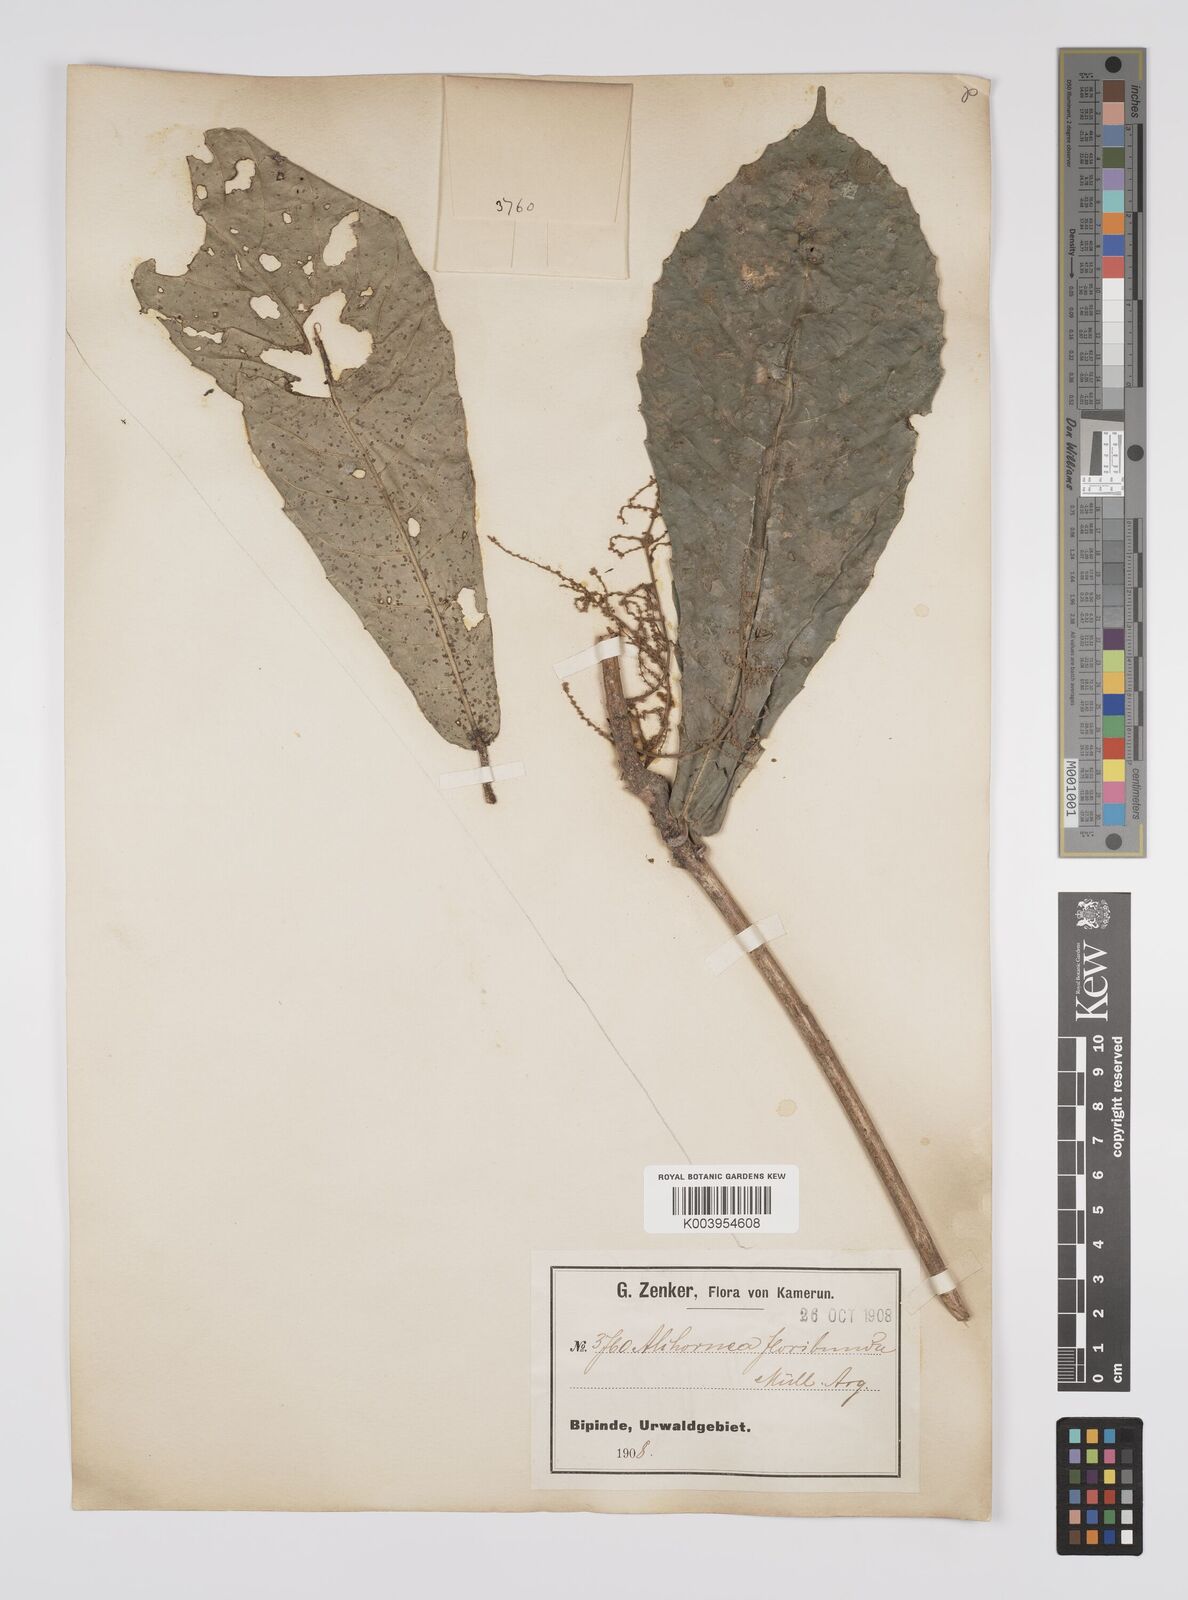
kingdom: Plantae
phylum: Tracheophyta
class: Magnoliopsida
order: Malpighiales
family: Euphorbiaceae
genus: Alchornea
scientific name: Alchornea floribunda
